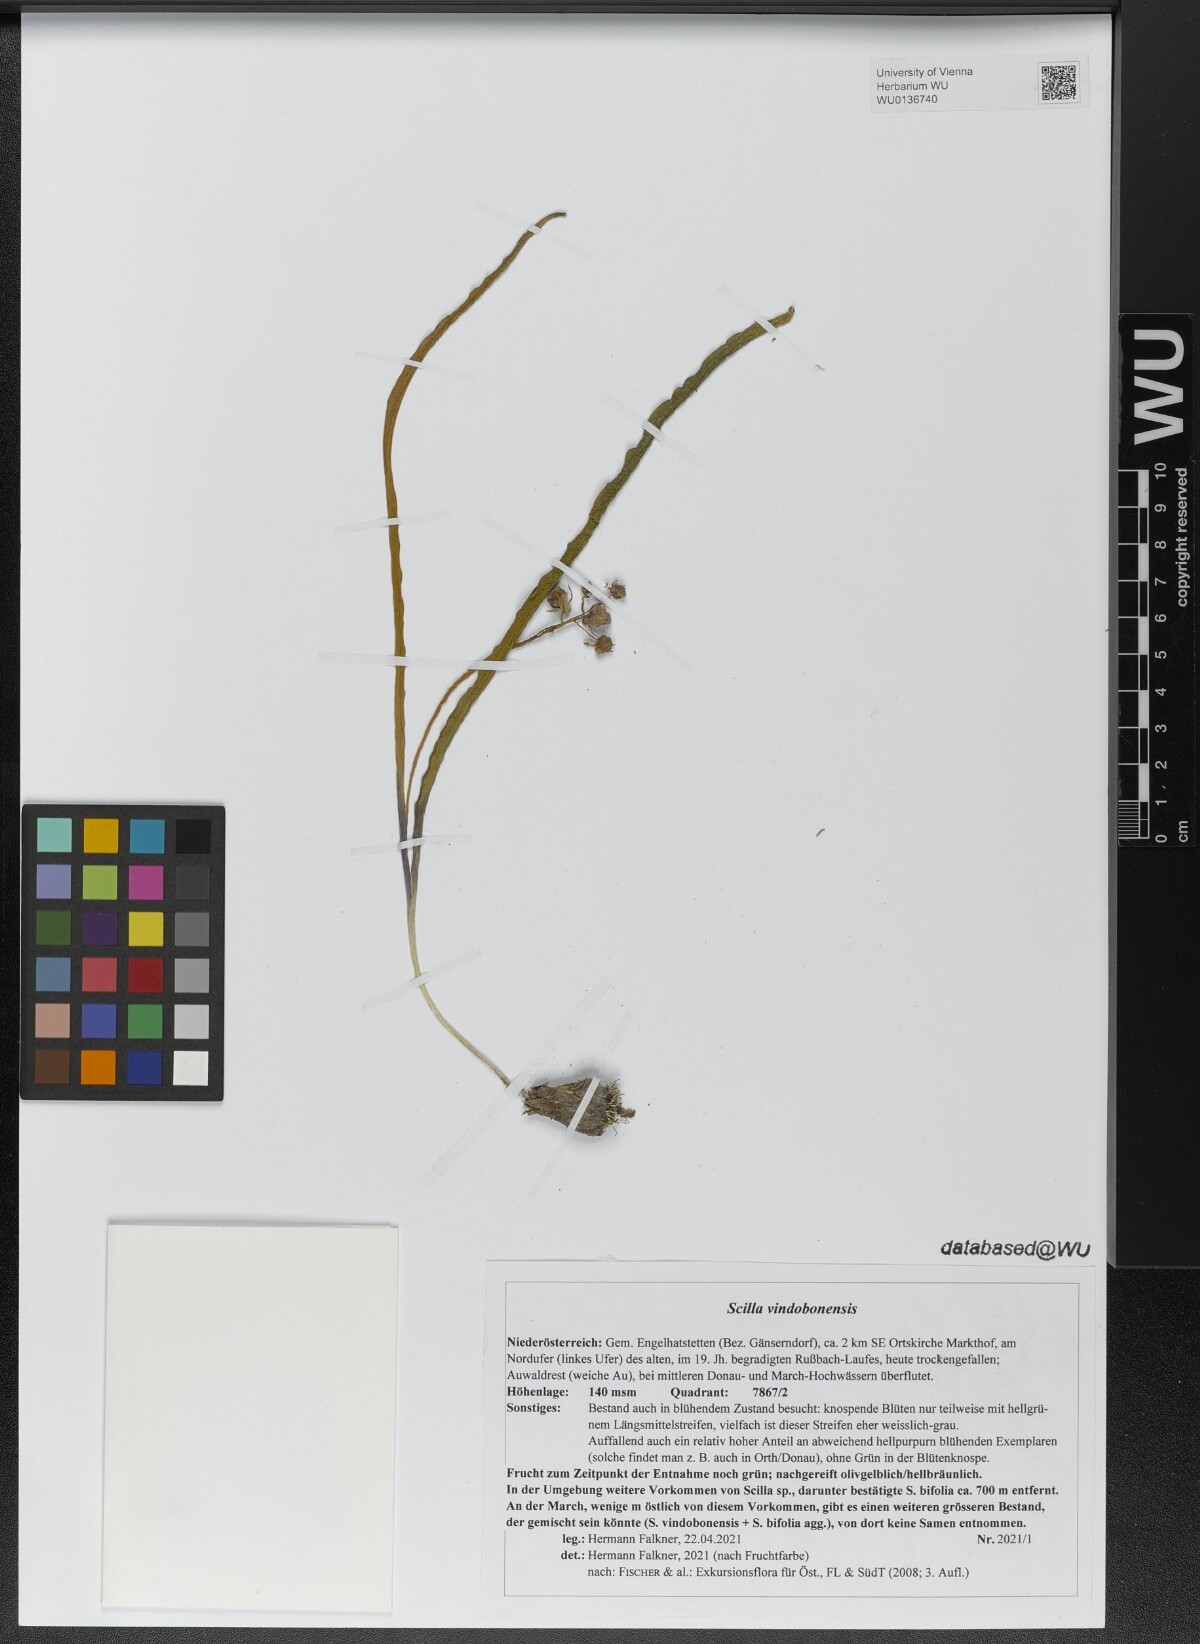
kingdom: Plantae
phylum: Tracheophyta
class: Liliopsida
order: Asparagales
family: Asparagaceae
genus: Scilla
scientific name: Scilla vindobonensis
